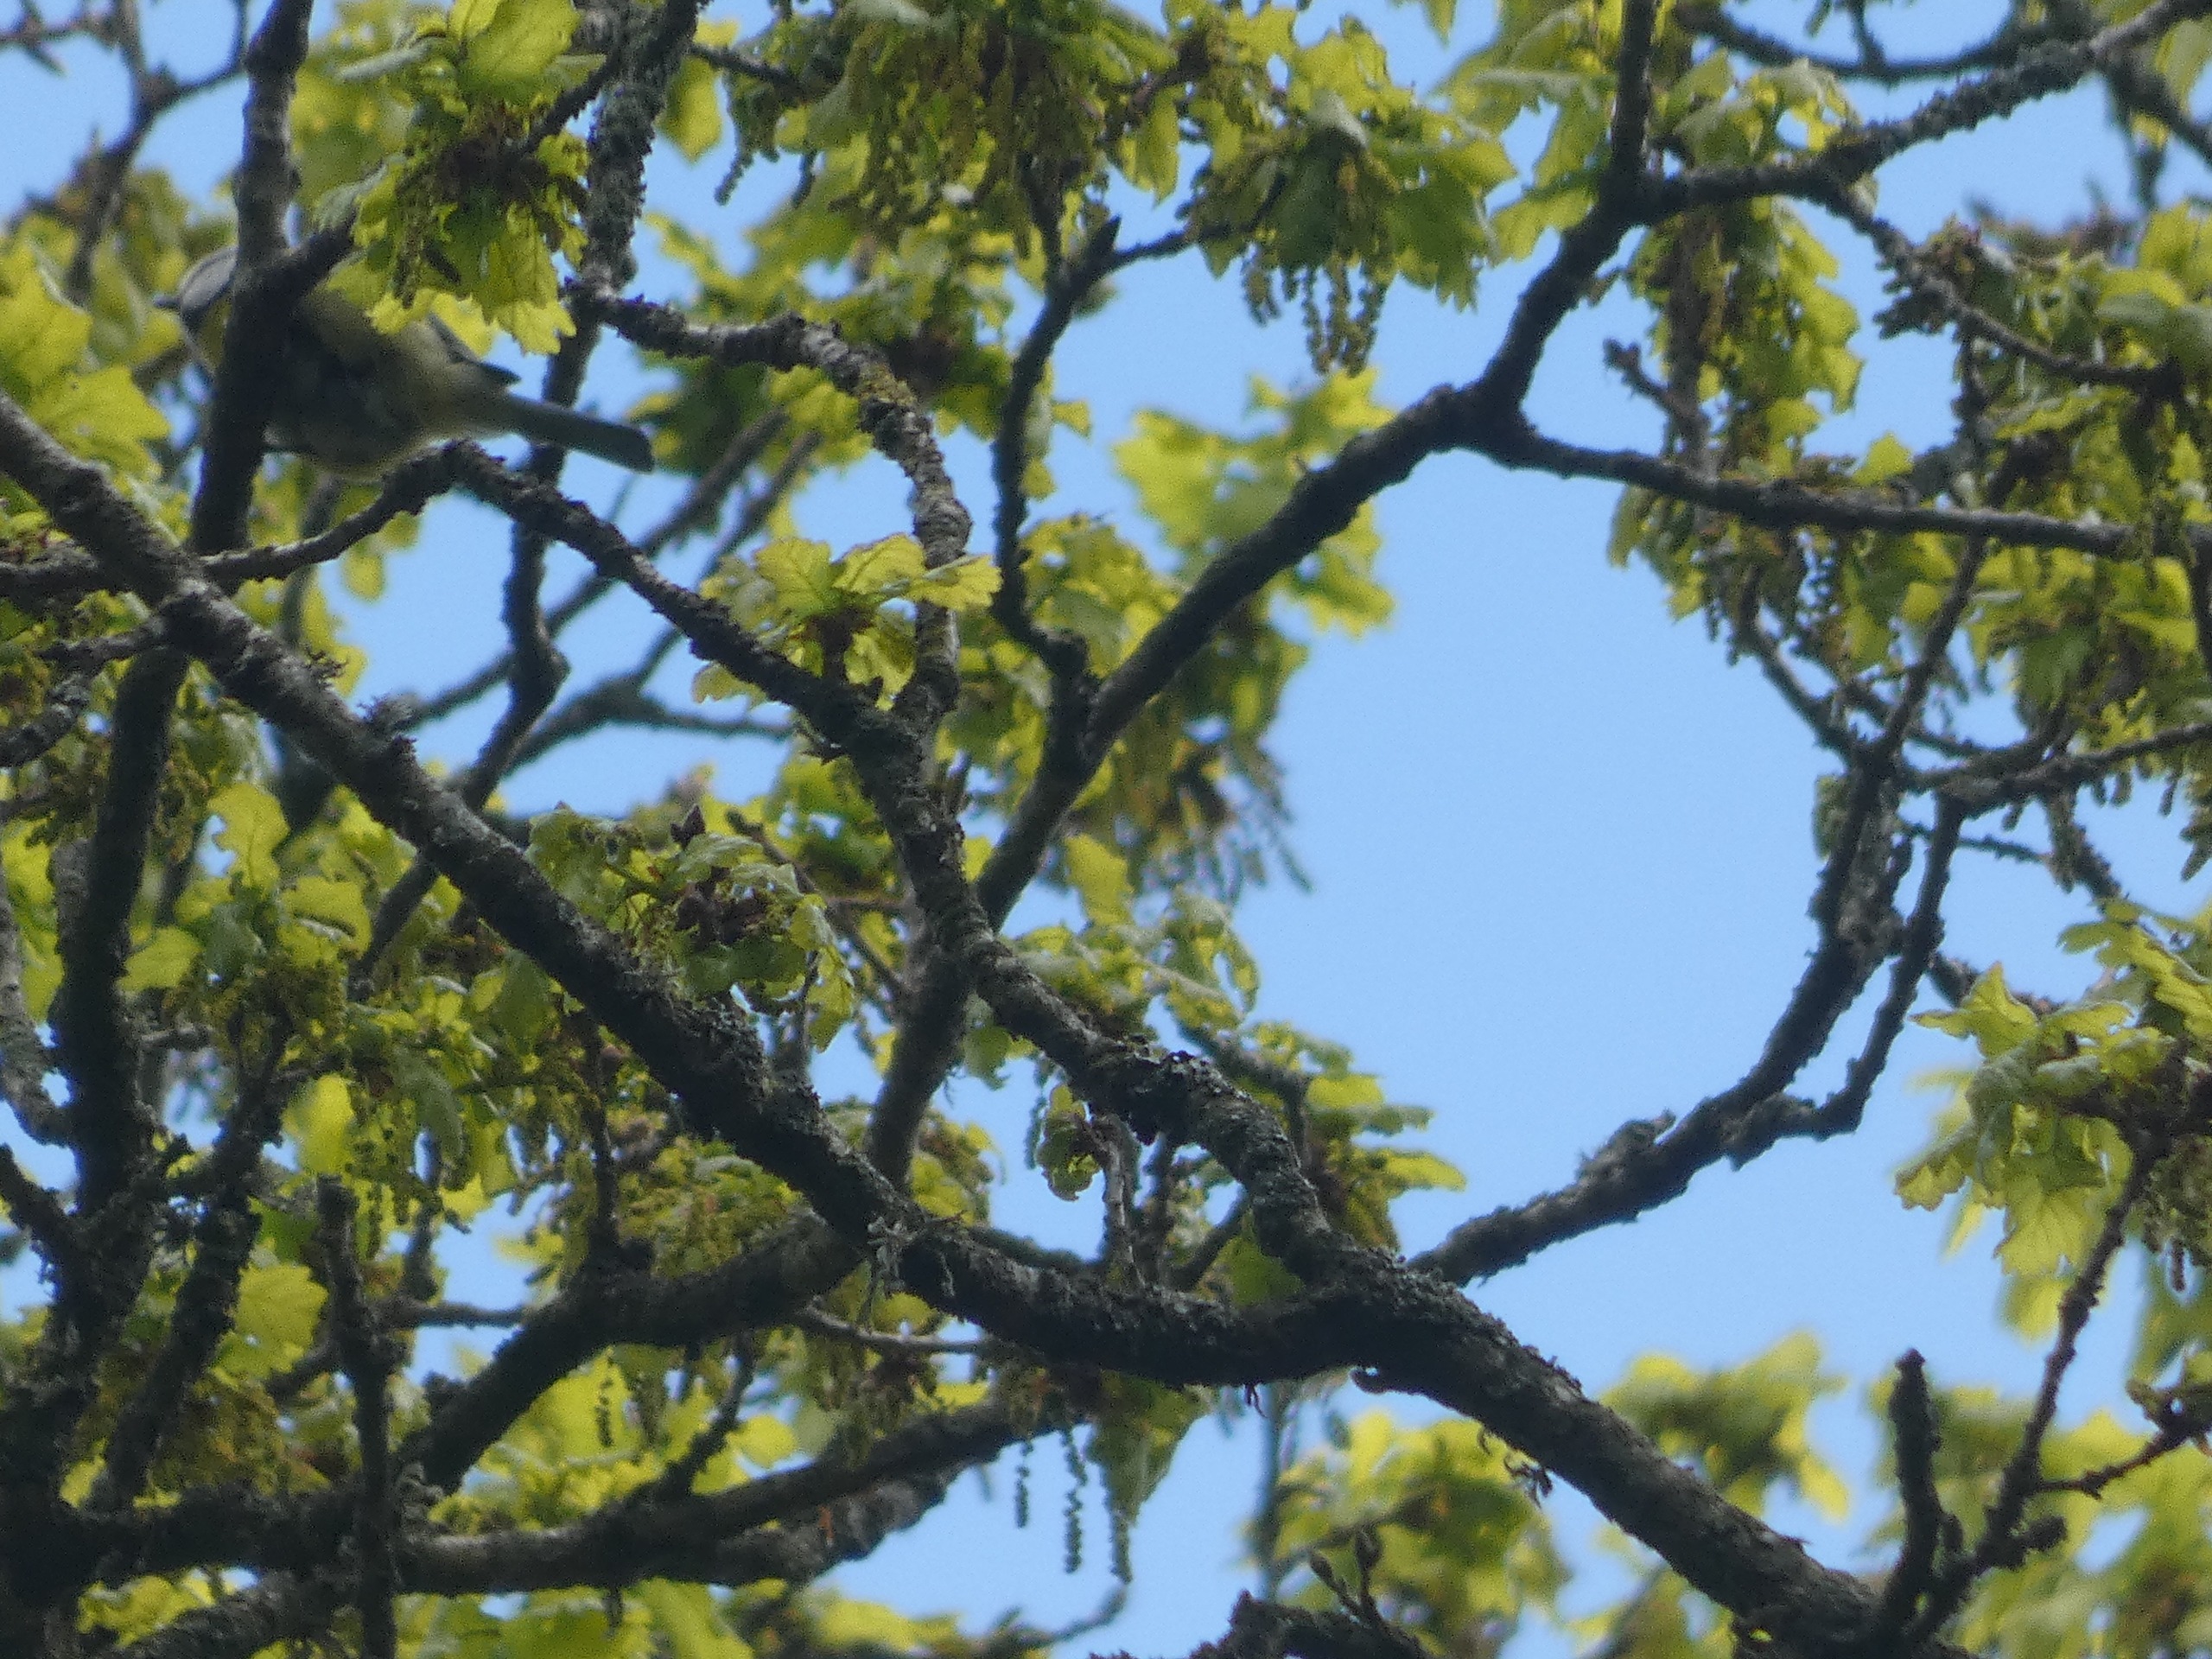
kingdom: Animalia
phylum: Chordata
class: Aves
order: Passeriformes
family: Paridae
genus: Cyanistes
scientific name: Cyanistes caeruleus
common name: Blåmejse
